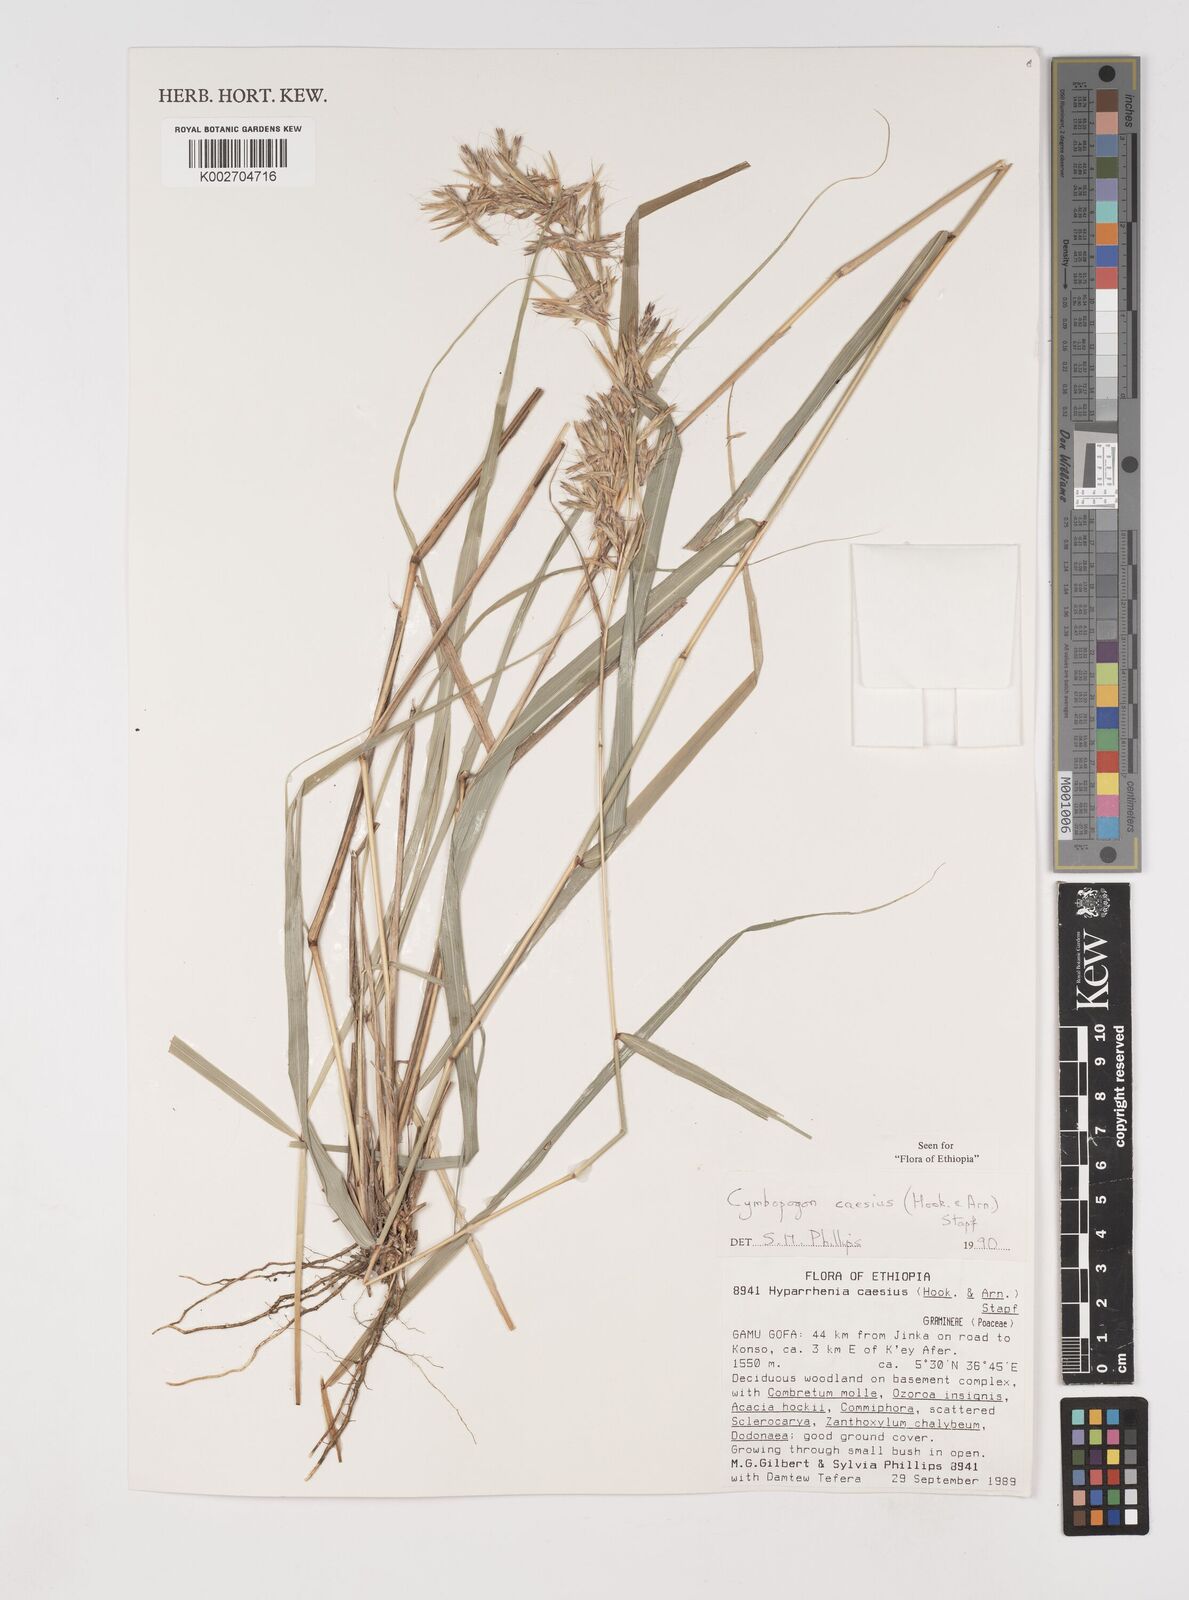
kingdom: Plantae
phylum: Tracheophyta
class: Liliopsida
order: Poales
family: Poaceae
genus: Cymbopogon
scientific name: Cymbopogon caesius
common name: Kachi grass
